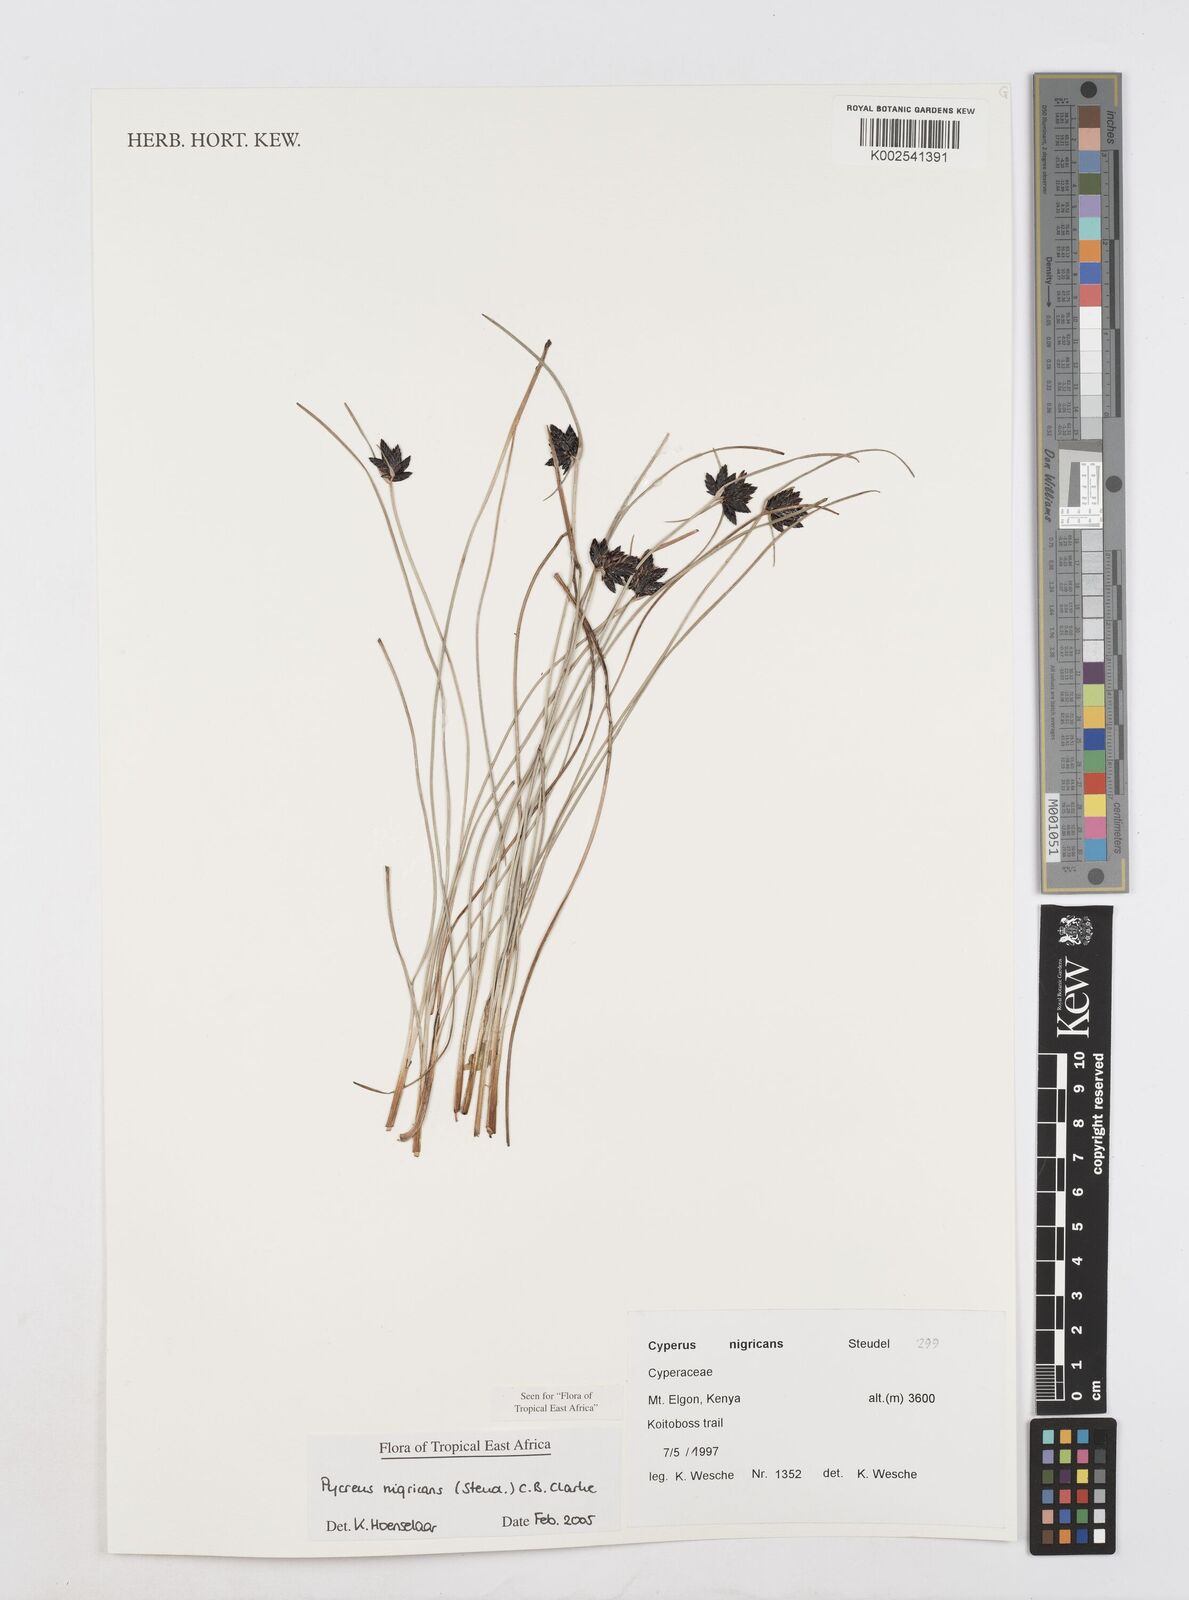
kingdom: Plantae
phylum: Tracheophyta
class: Liliopsida
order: Poales
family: Cyperaceae
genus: Cyperus
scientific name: Cyperus nigricans
